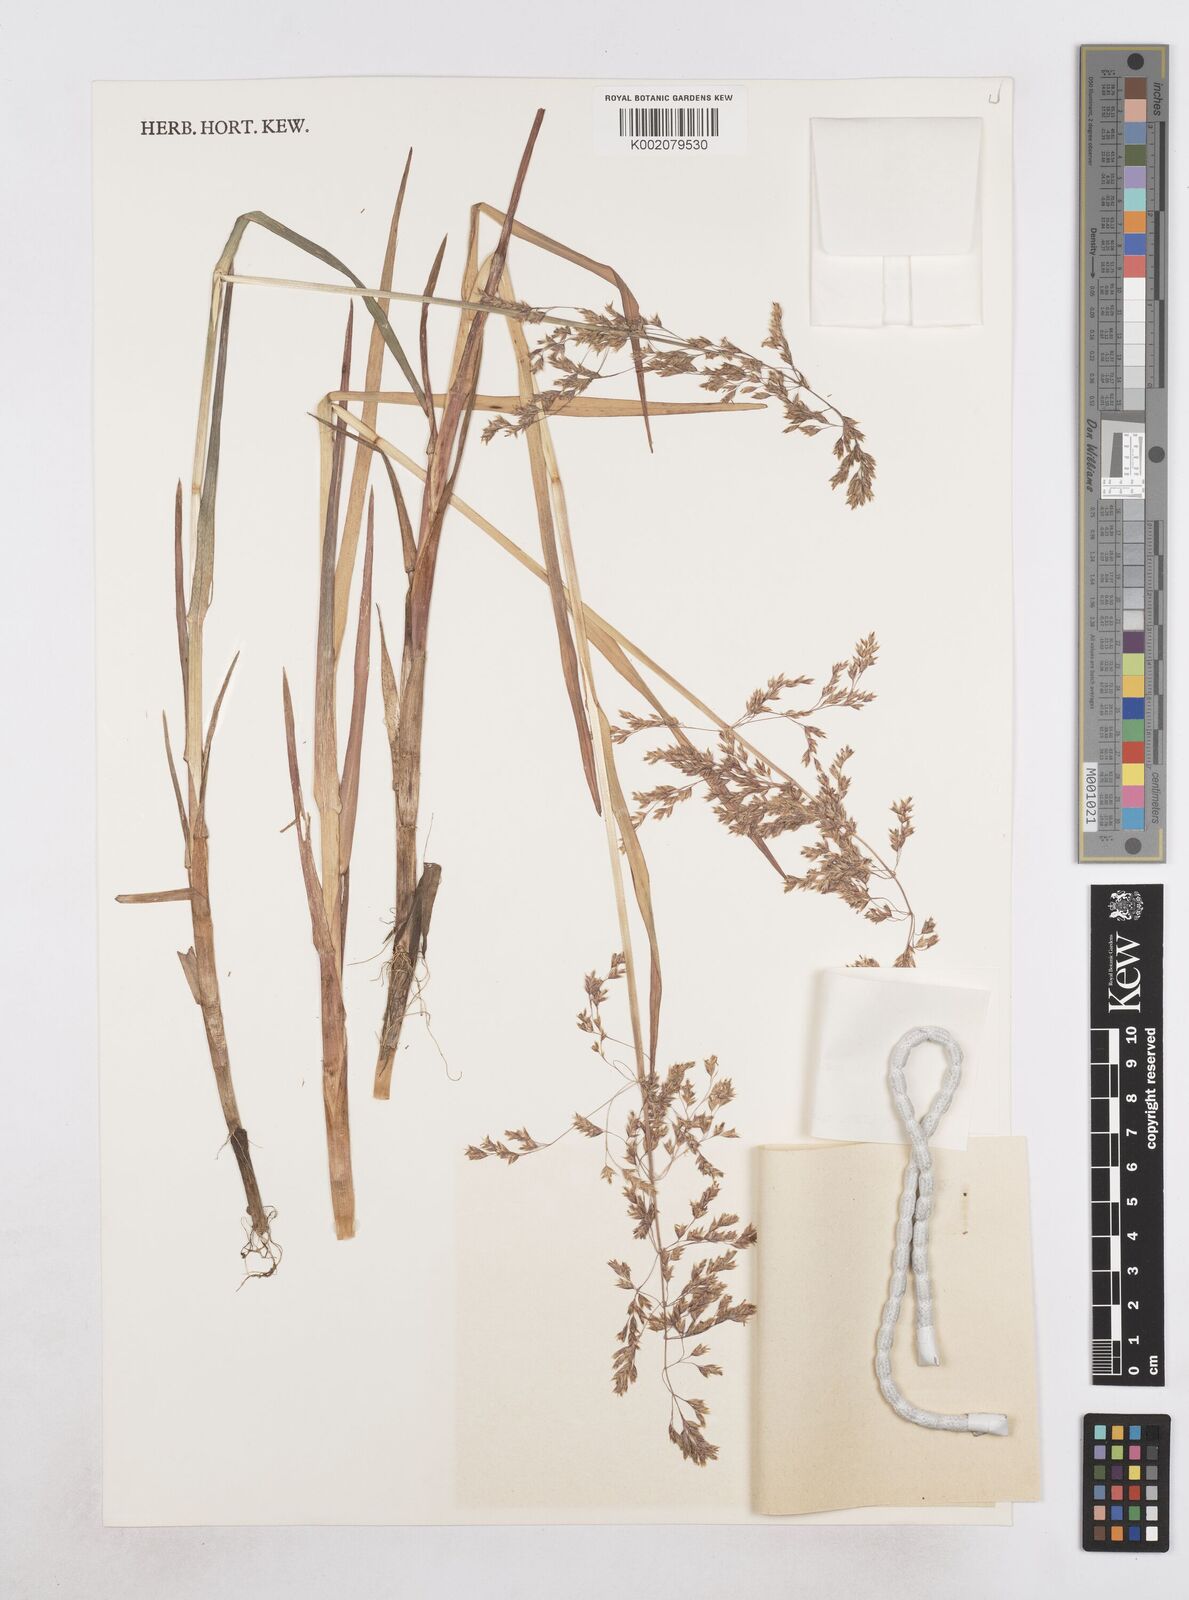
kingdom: Plantae
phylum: Tracheophyta
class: Liliopsida
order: Poales
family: Poaceae
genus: Dupontia
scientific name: Dupontia fulva
